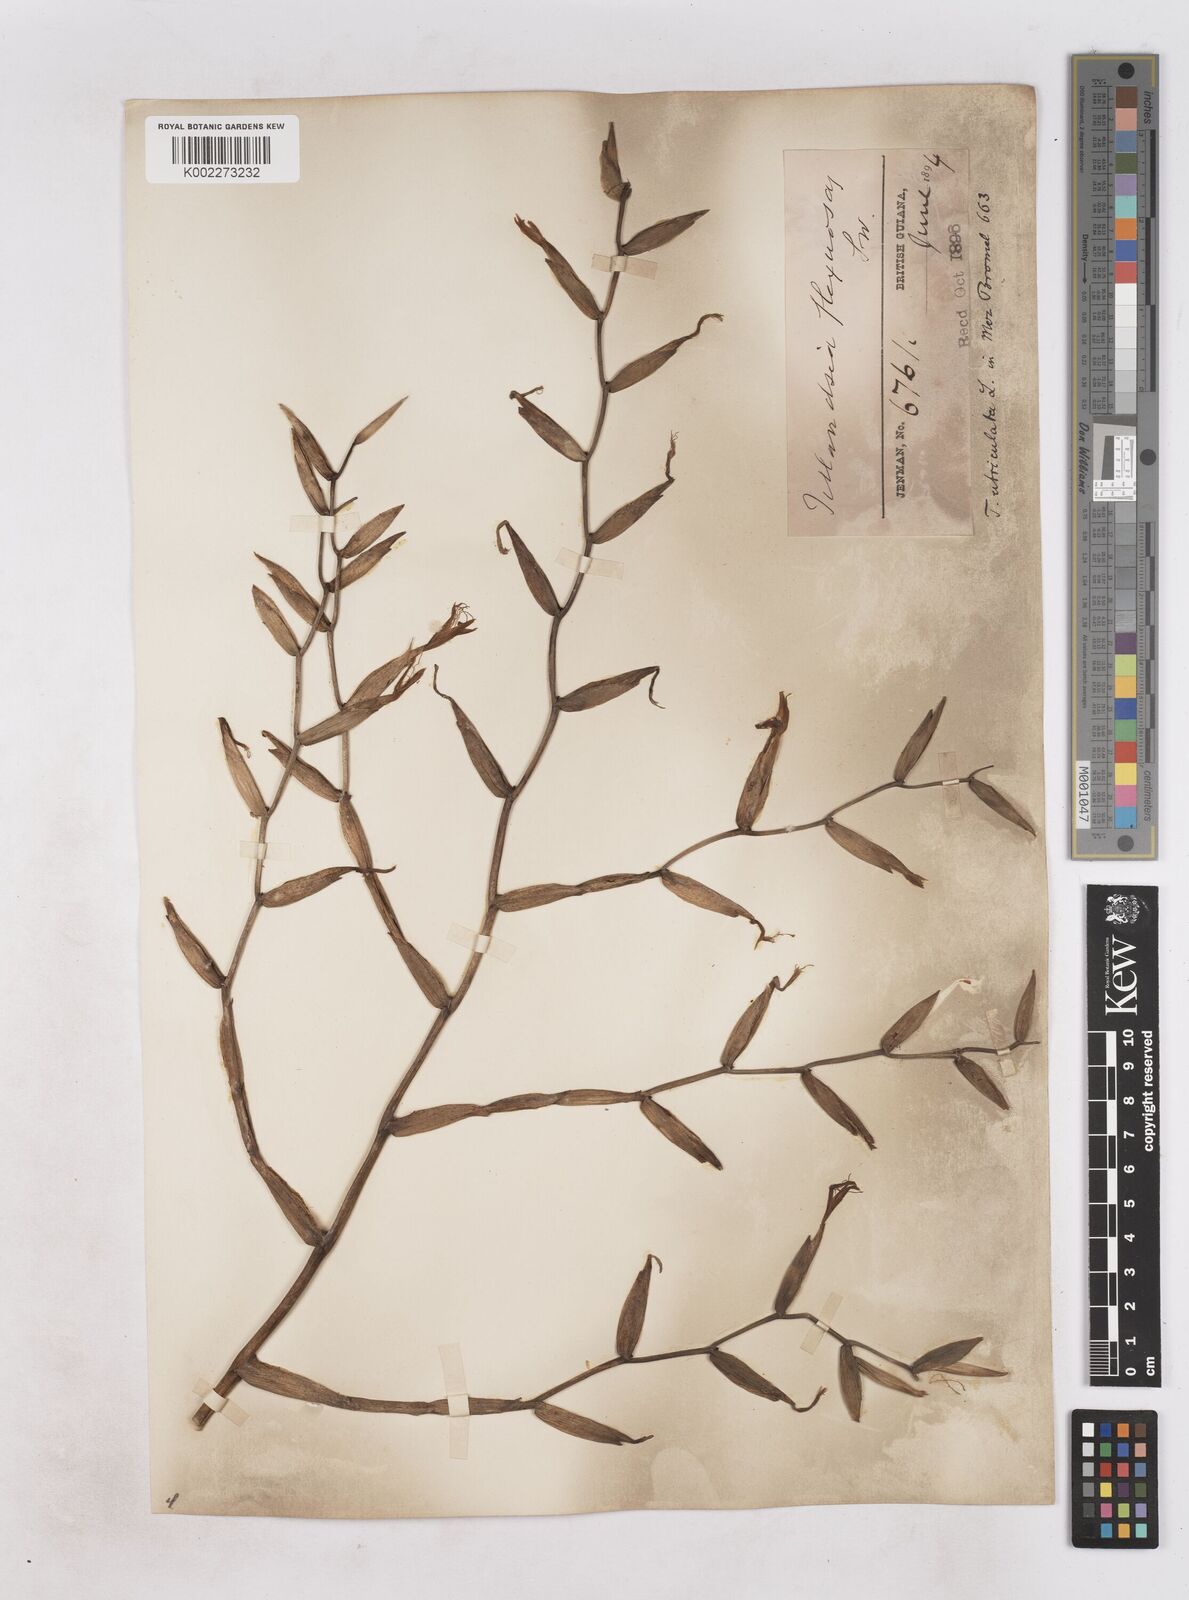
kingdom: Plantae
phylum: Tracheophyta
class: Liliopsida
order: Poales
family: Bromeliaceae
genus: Tillandsia
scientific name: Tillandsia flexuosa
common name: Banded airplant
